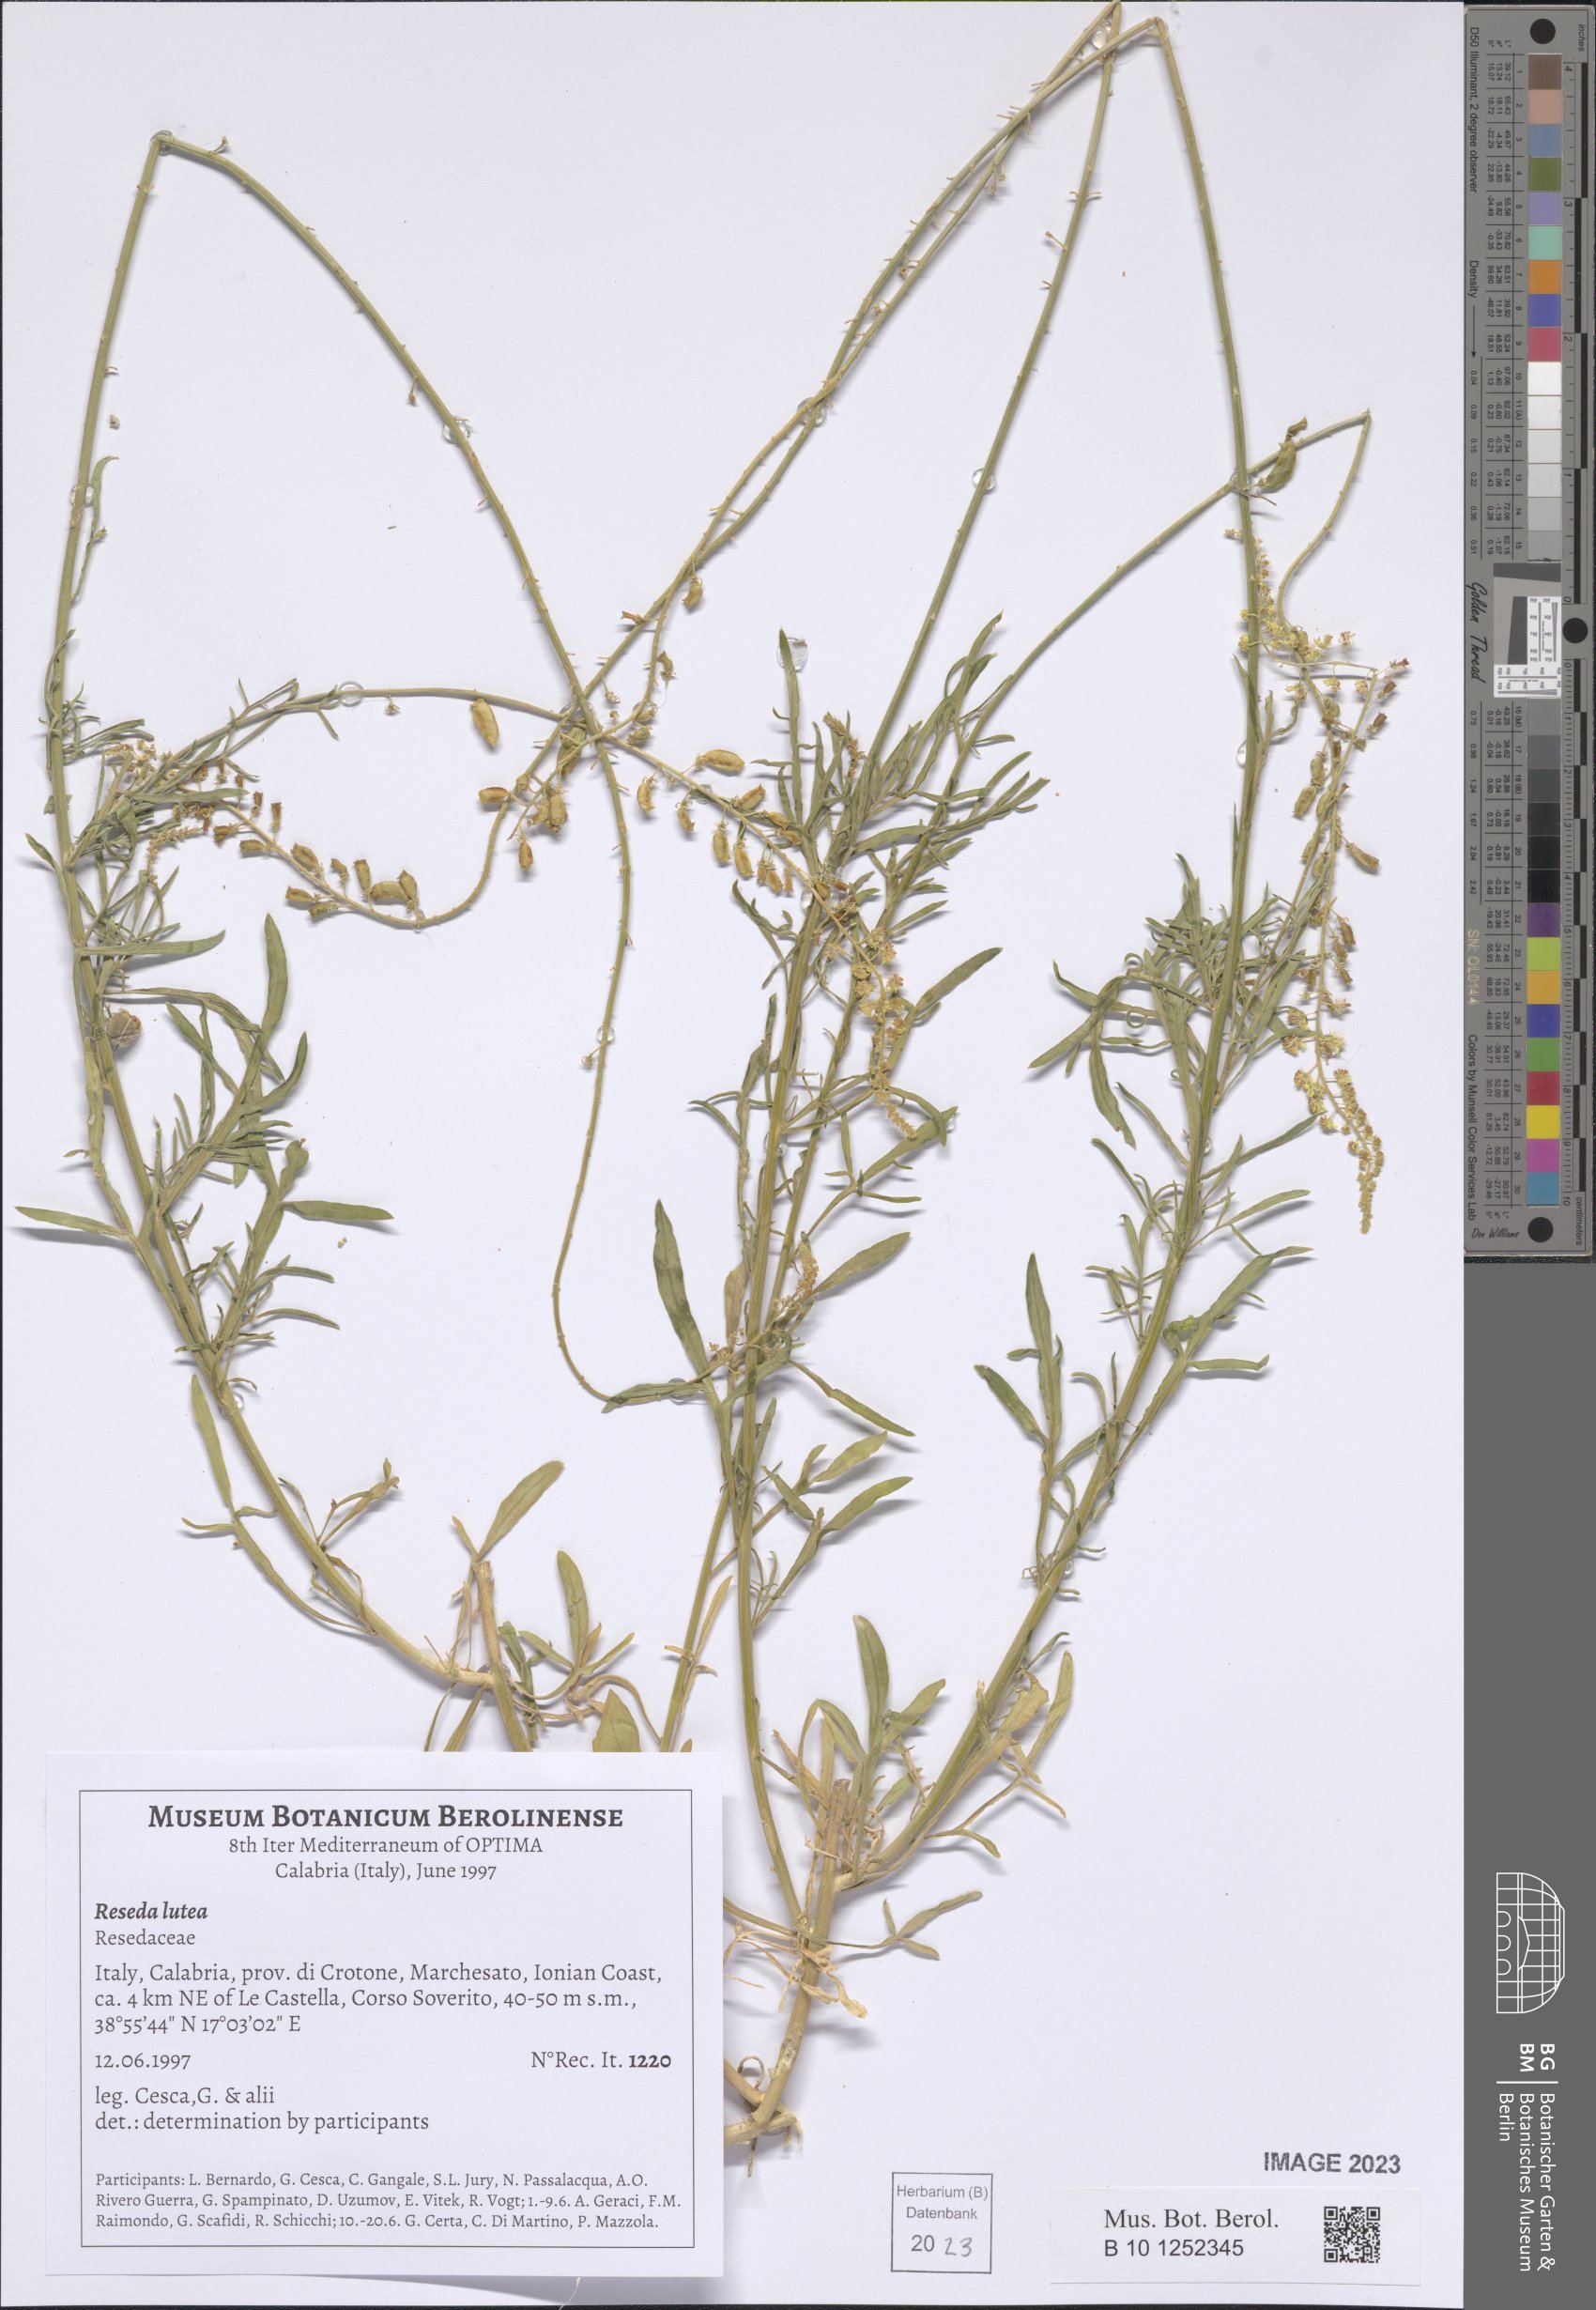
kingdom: Plantae
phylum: Tracheophyta
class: Magnoliopsida
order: Brassicales
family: Resedaceae
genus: Reseda
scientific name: Reseda lutea
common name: Wild mignonette
